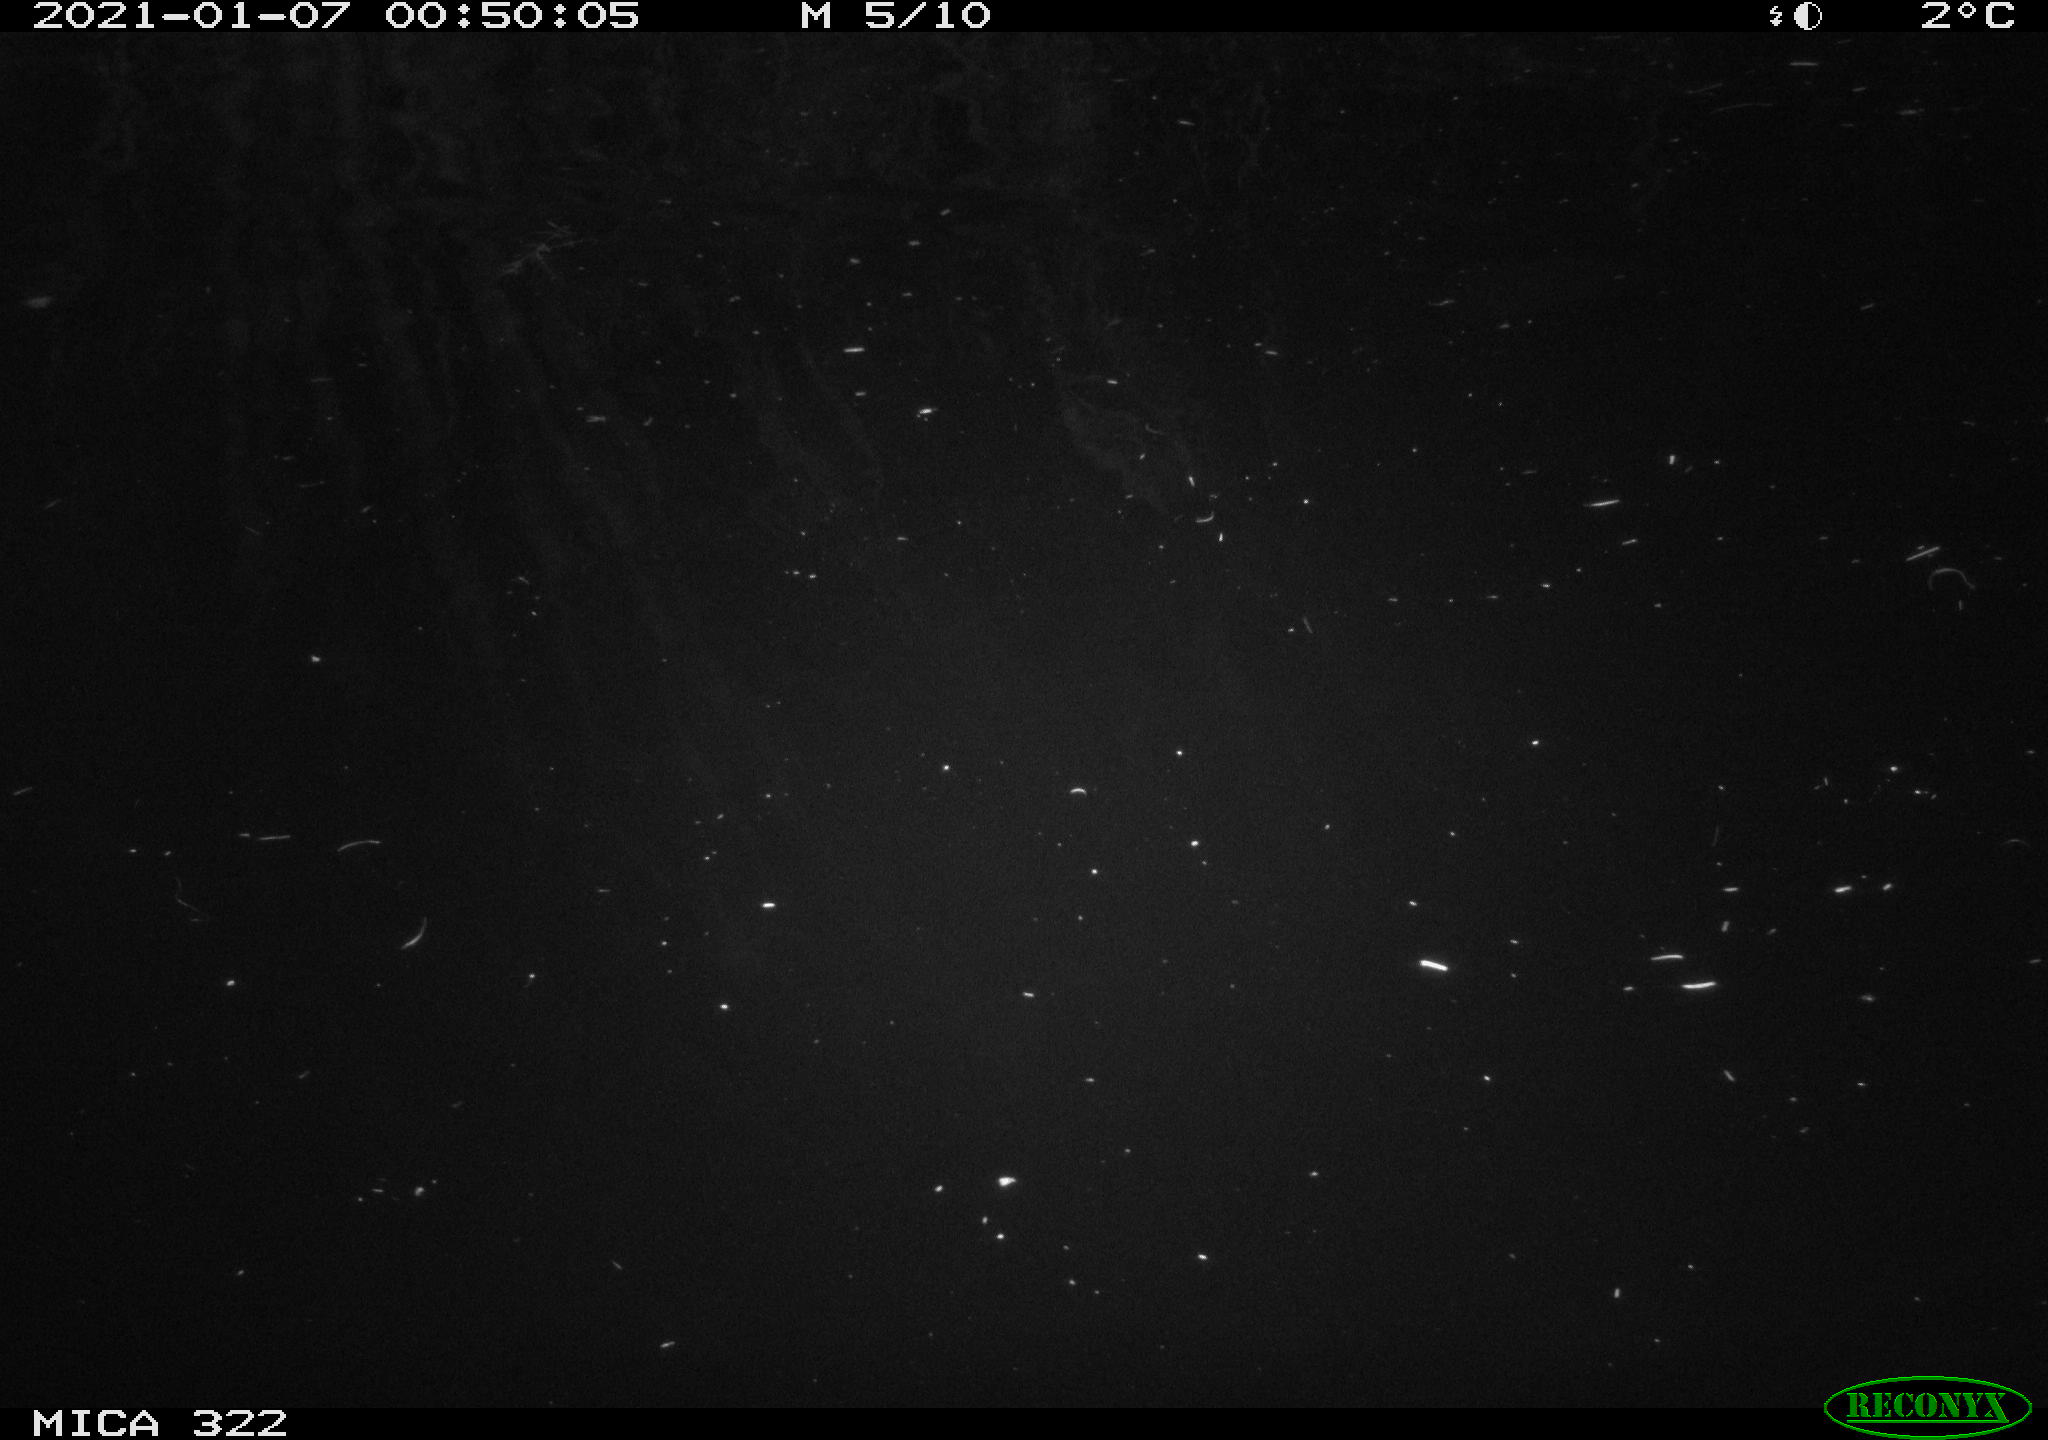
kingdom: Animalia
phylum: Chordata
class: Aves
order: Anseriformes
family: Anatidae
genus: Anas
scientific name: Anas platyrhynchos
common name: Mallard
